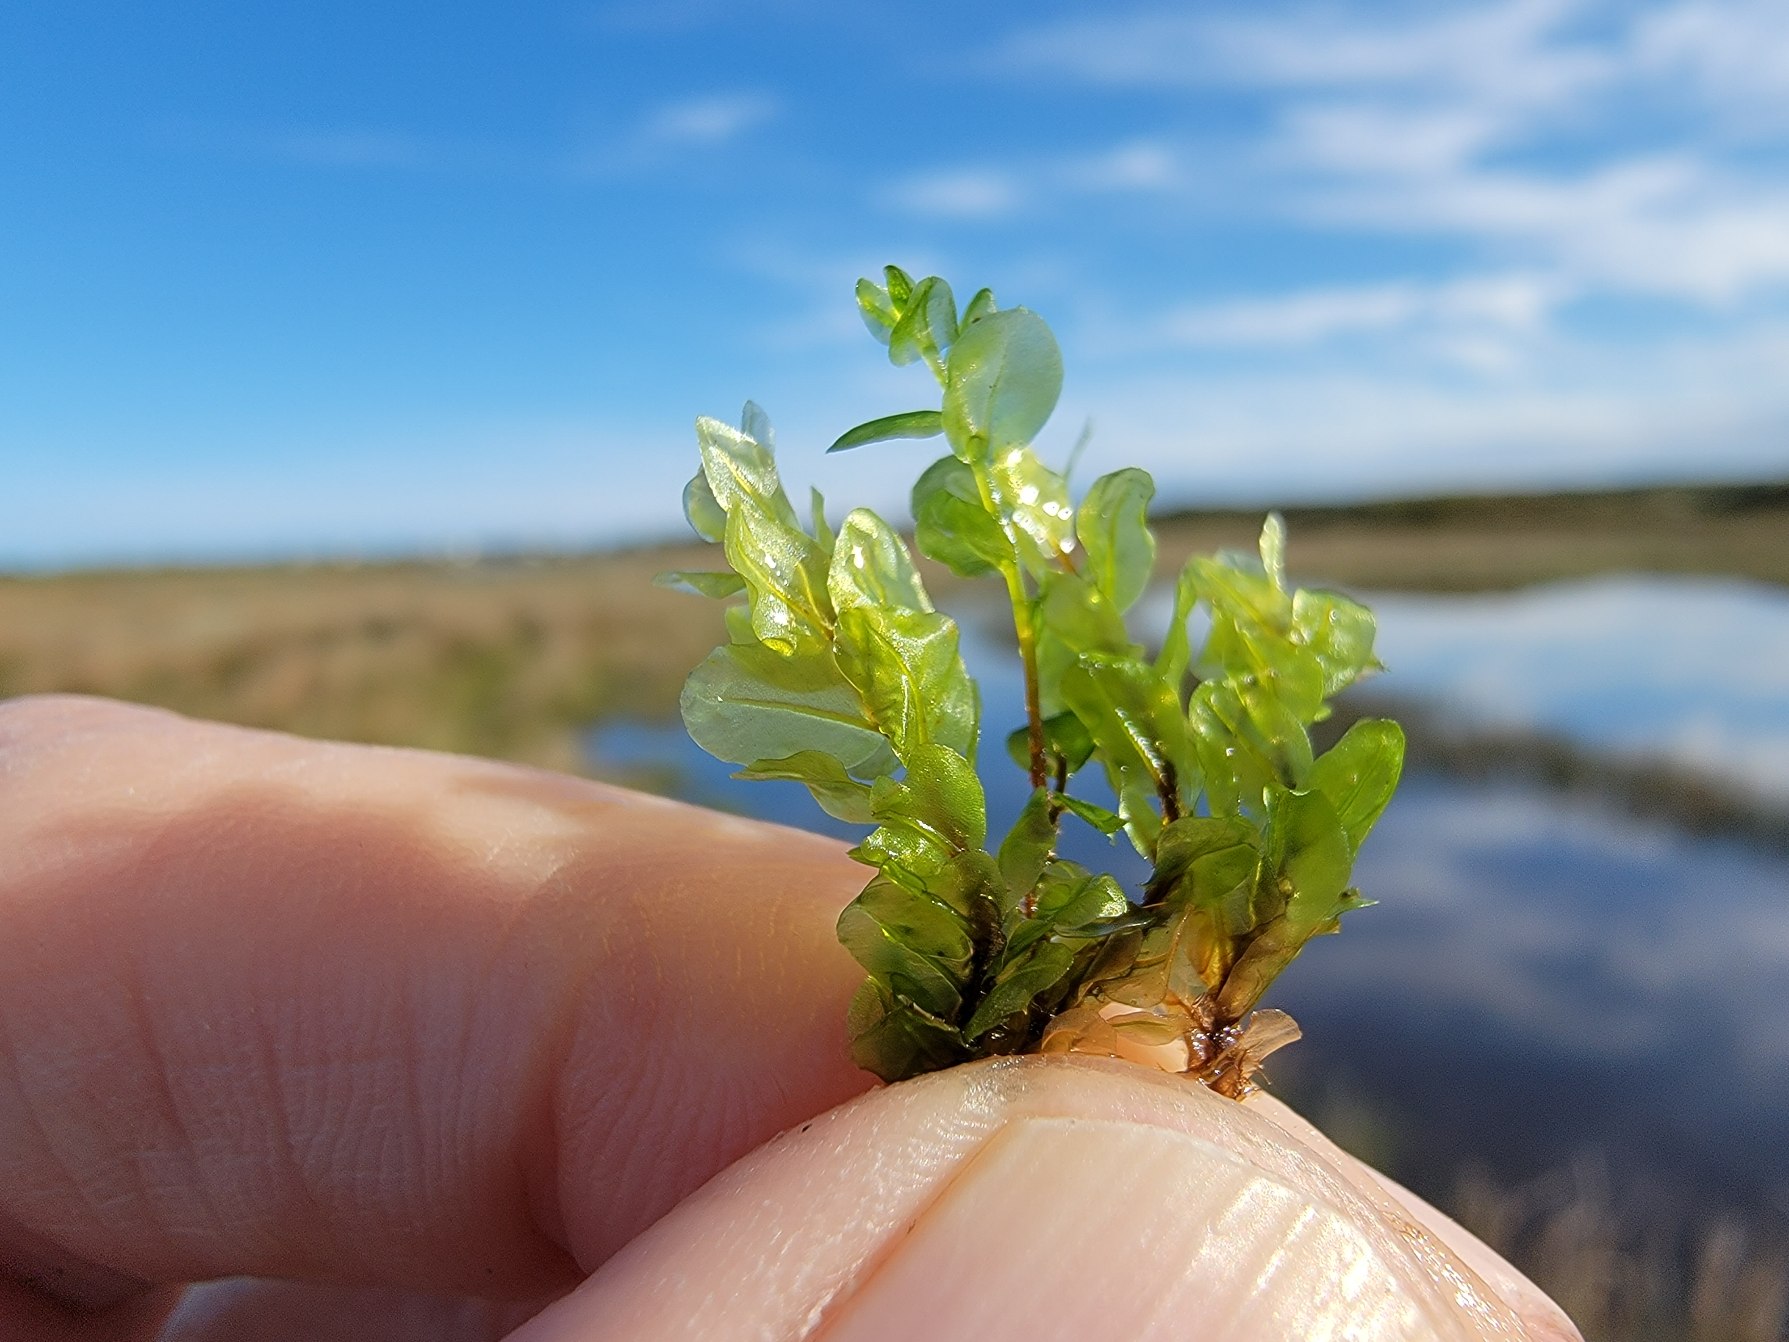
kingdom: Plantae
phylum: Bryophyta
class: Bryopsida
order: Bryales
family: Mniaceae
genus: Pseudobryum
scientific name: Pseudobryum cinclidioides
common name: Sortstænglet sumpmos
